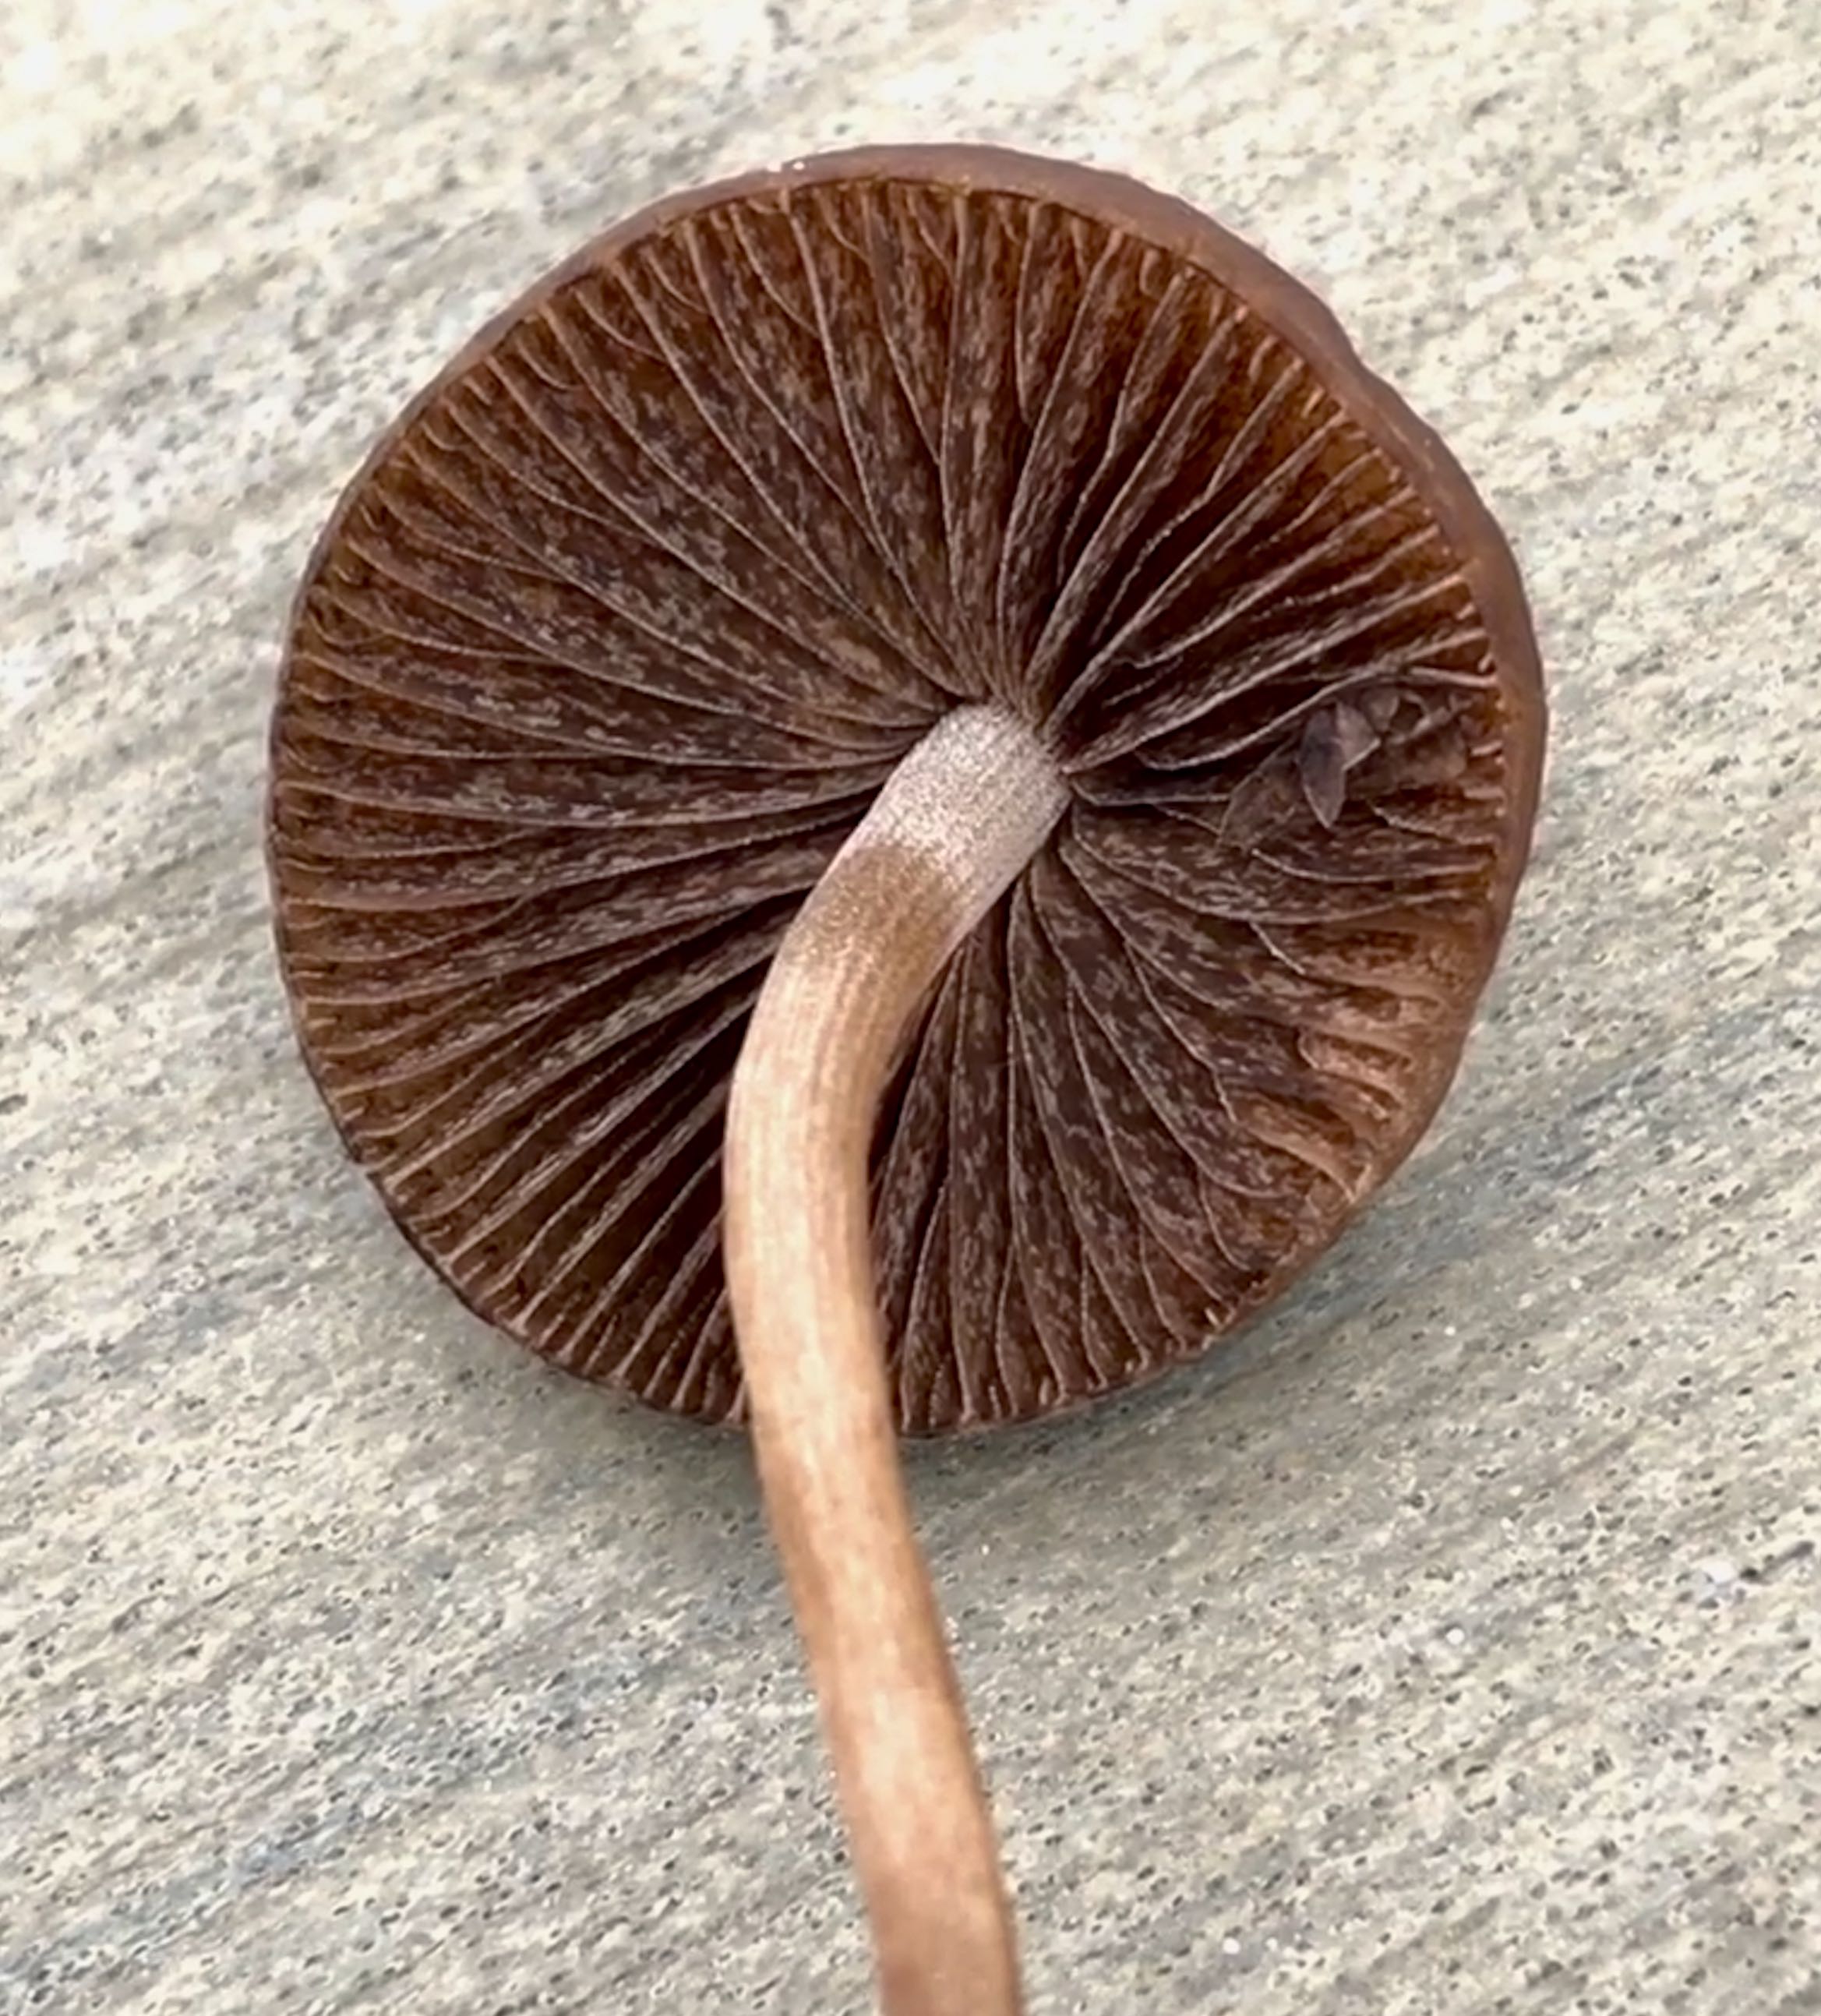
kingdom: Fungi
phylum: Basidiomycota
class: Agaricomycetes
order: Agaricales
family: Bolbitiaceae
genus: Panaeolina
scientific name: Panaeolina foenisecii
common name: høslætsvamp
